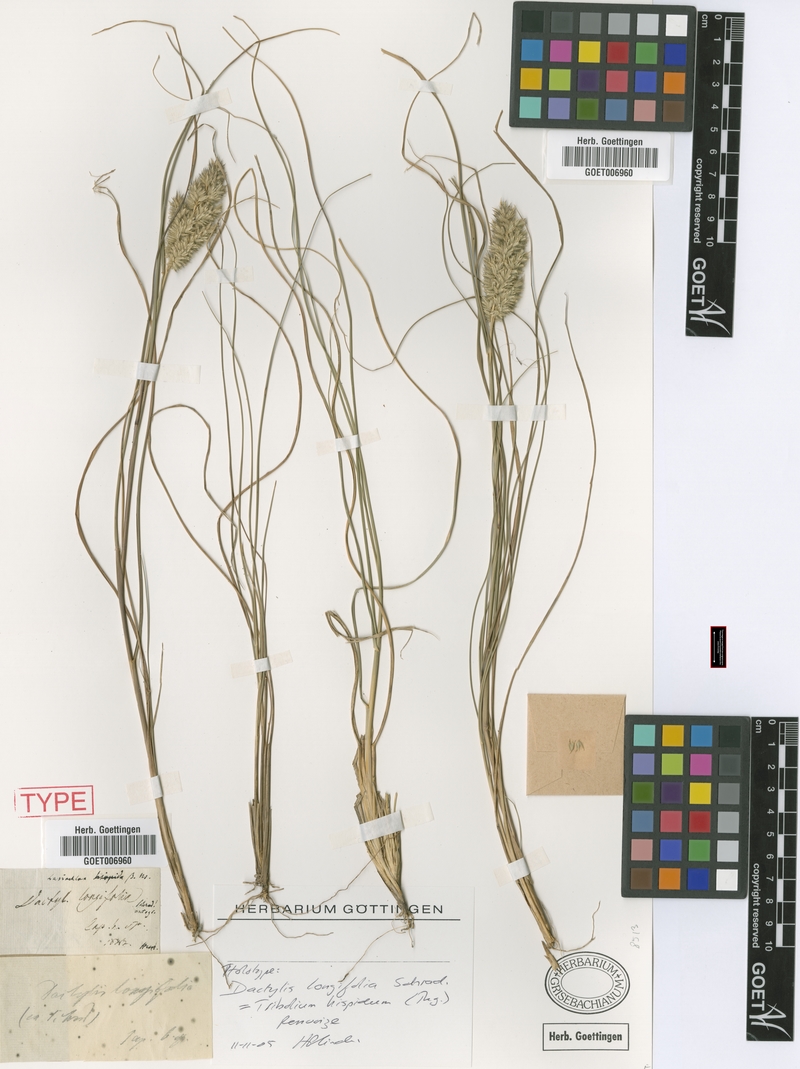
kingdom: Plantae
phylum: Tracheophyta
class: Liliopsida
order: Poales
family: Poaceae
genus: Tribolium
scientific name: Tribolium hispidum
